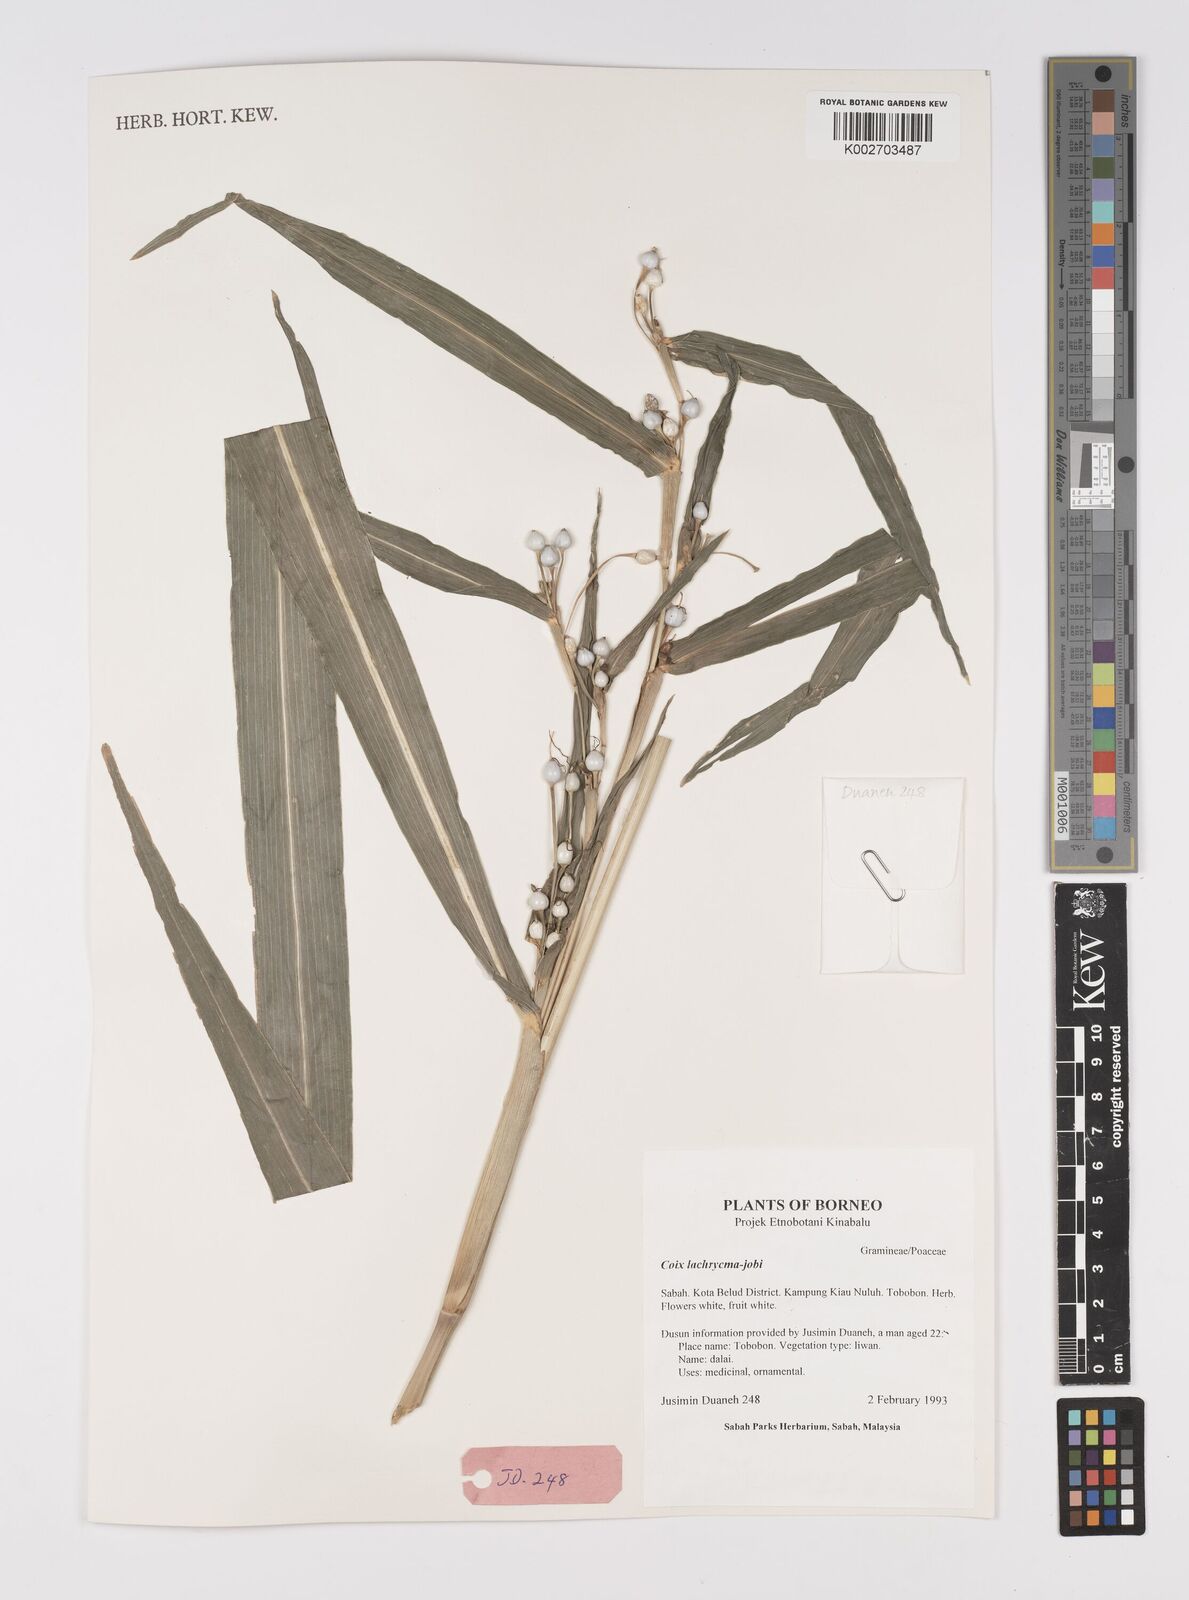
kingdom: Plantae
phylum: Tracheophyta
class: Liliopsida
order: Poales
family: Poaceae
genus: Coix
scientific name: Coix lacryma-jobi
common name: Job's tears
